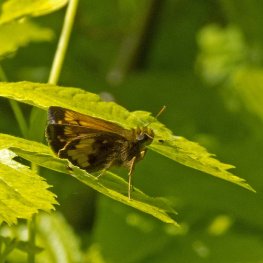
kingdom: Animalia
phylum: Arthropoda
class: Insecta
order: Lepidoptera
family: Hesperiidae
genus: Lon
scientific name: Lon hobomok
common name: Hobomok Skipper
